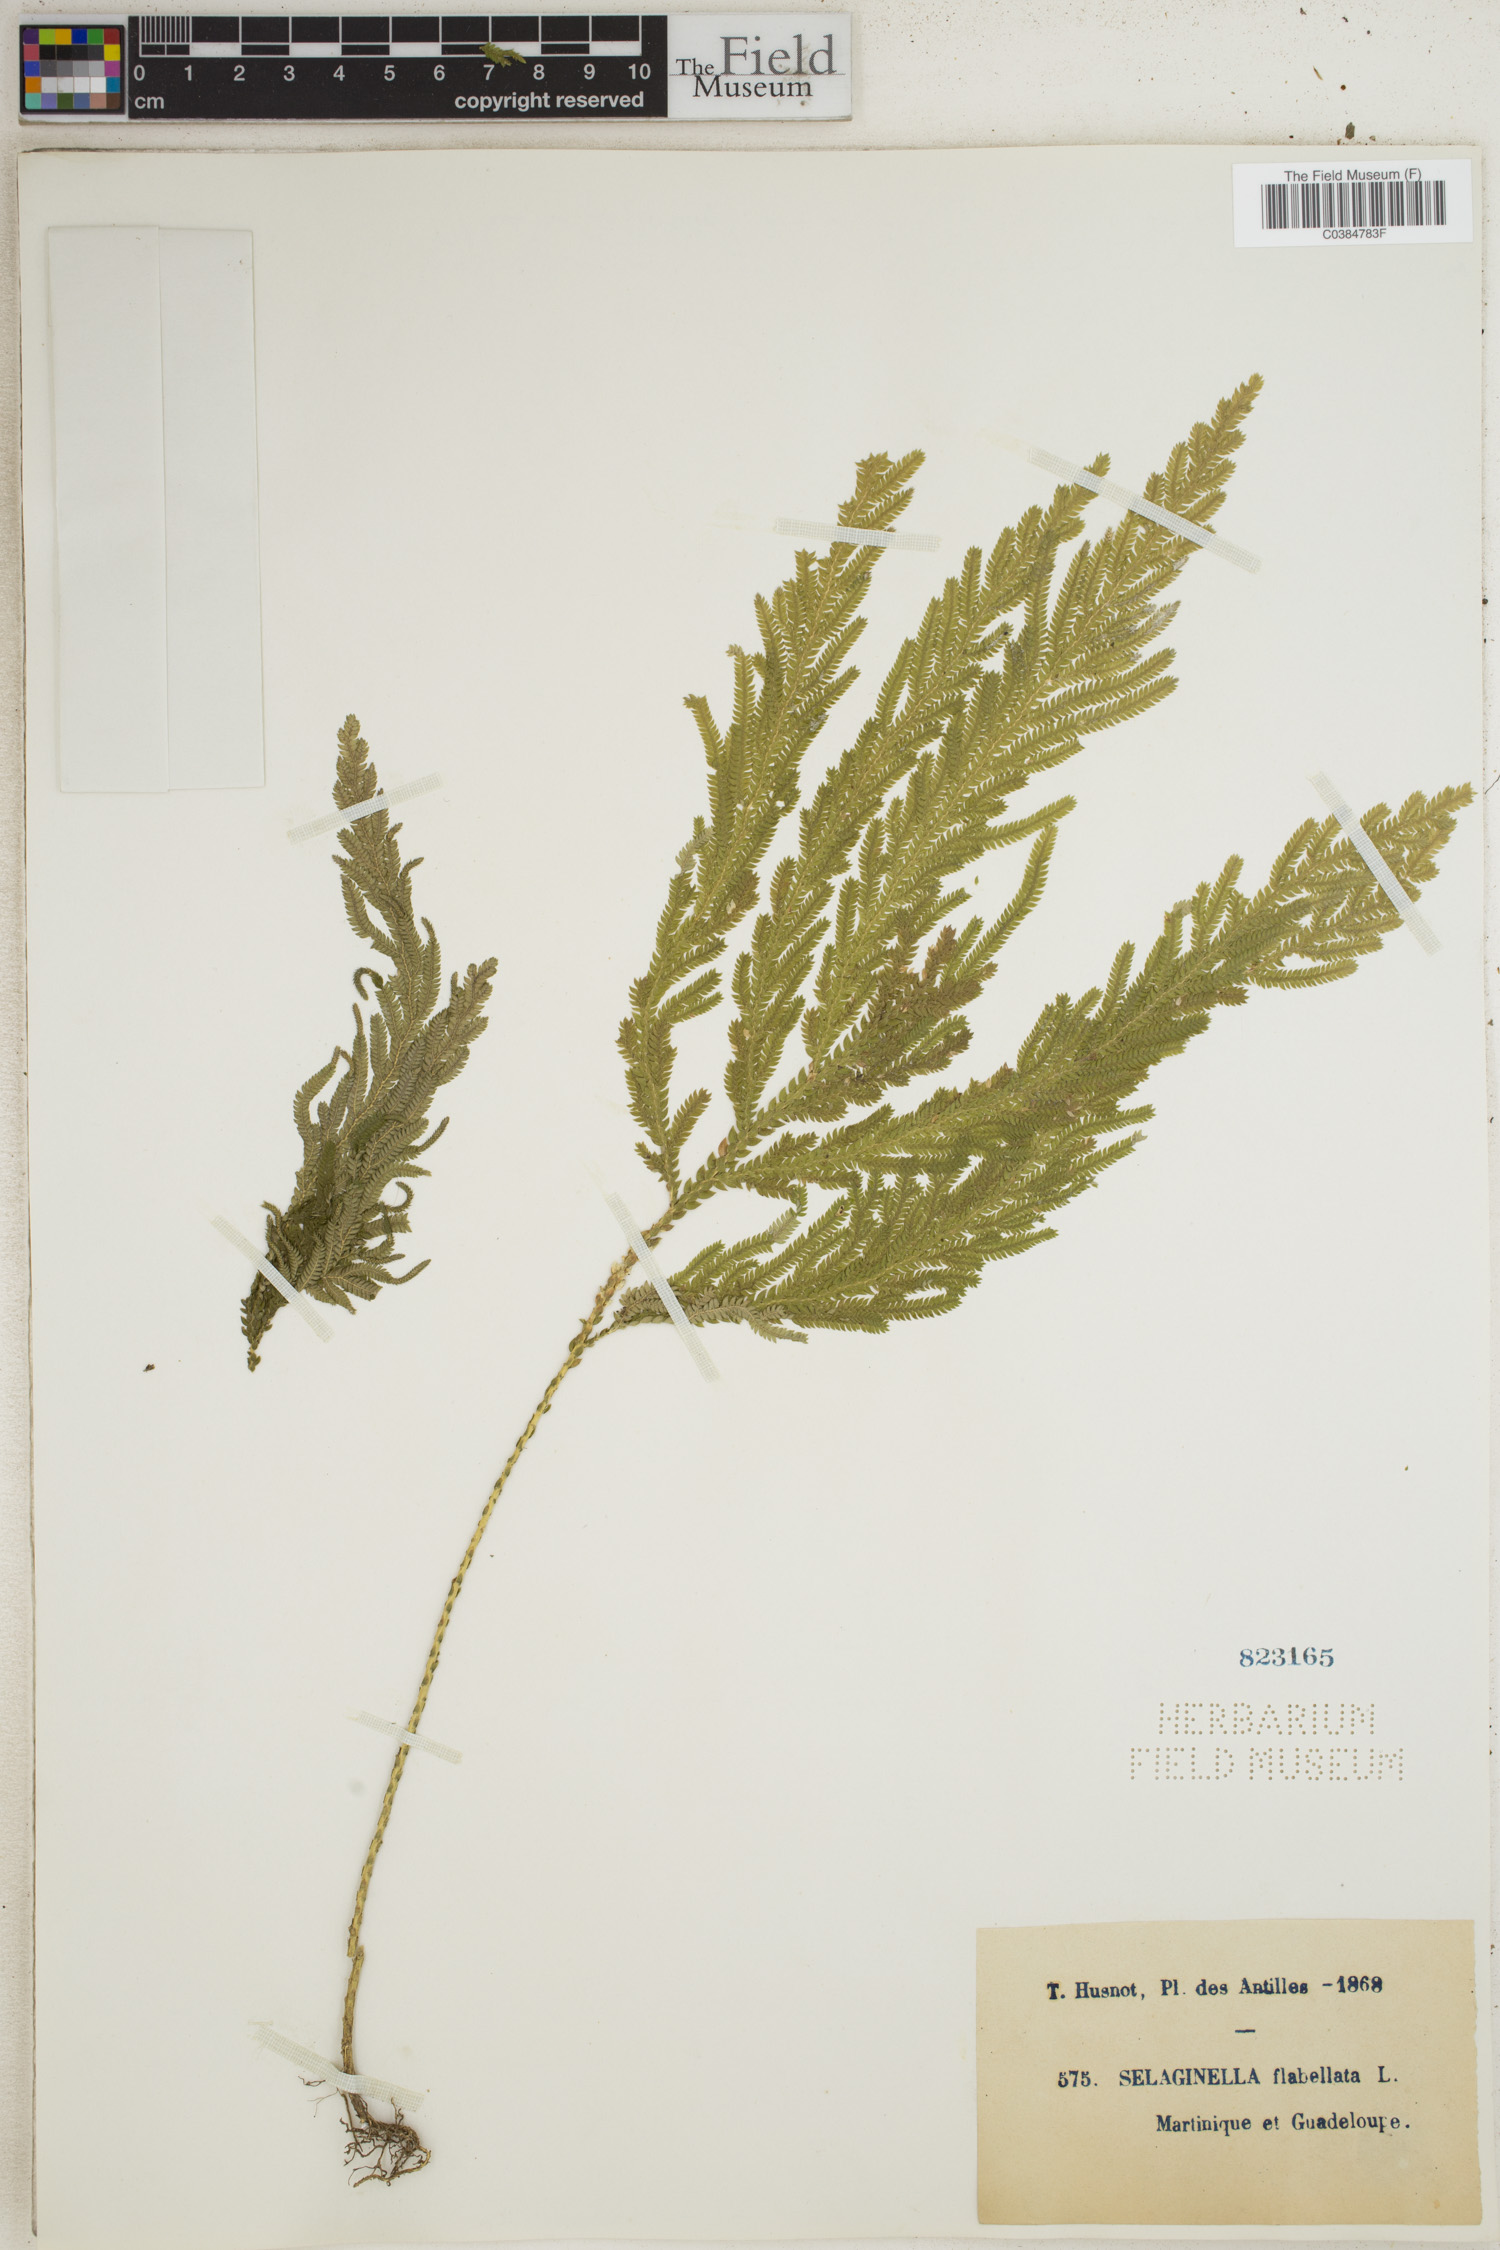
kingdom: Plantae
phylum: Tracheophyta
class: Lycopodiopsida
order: Selaginellales
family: Selaginellaceae
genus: Selaginella
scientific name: Selaginella flabellata
